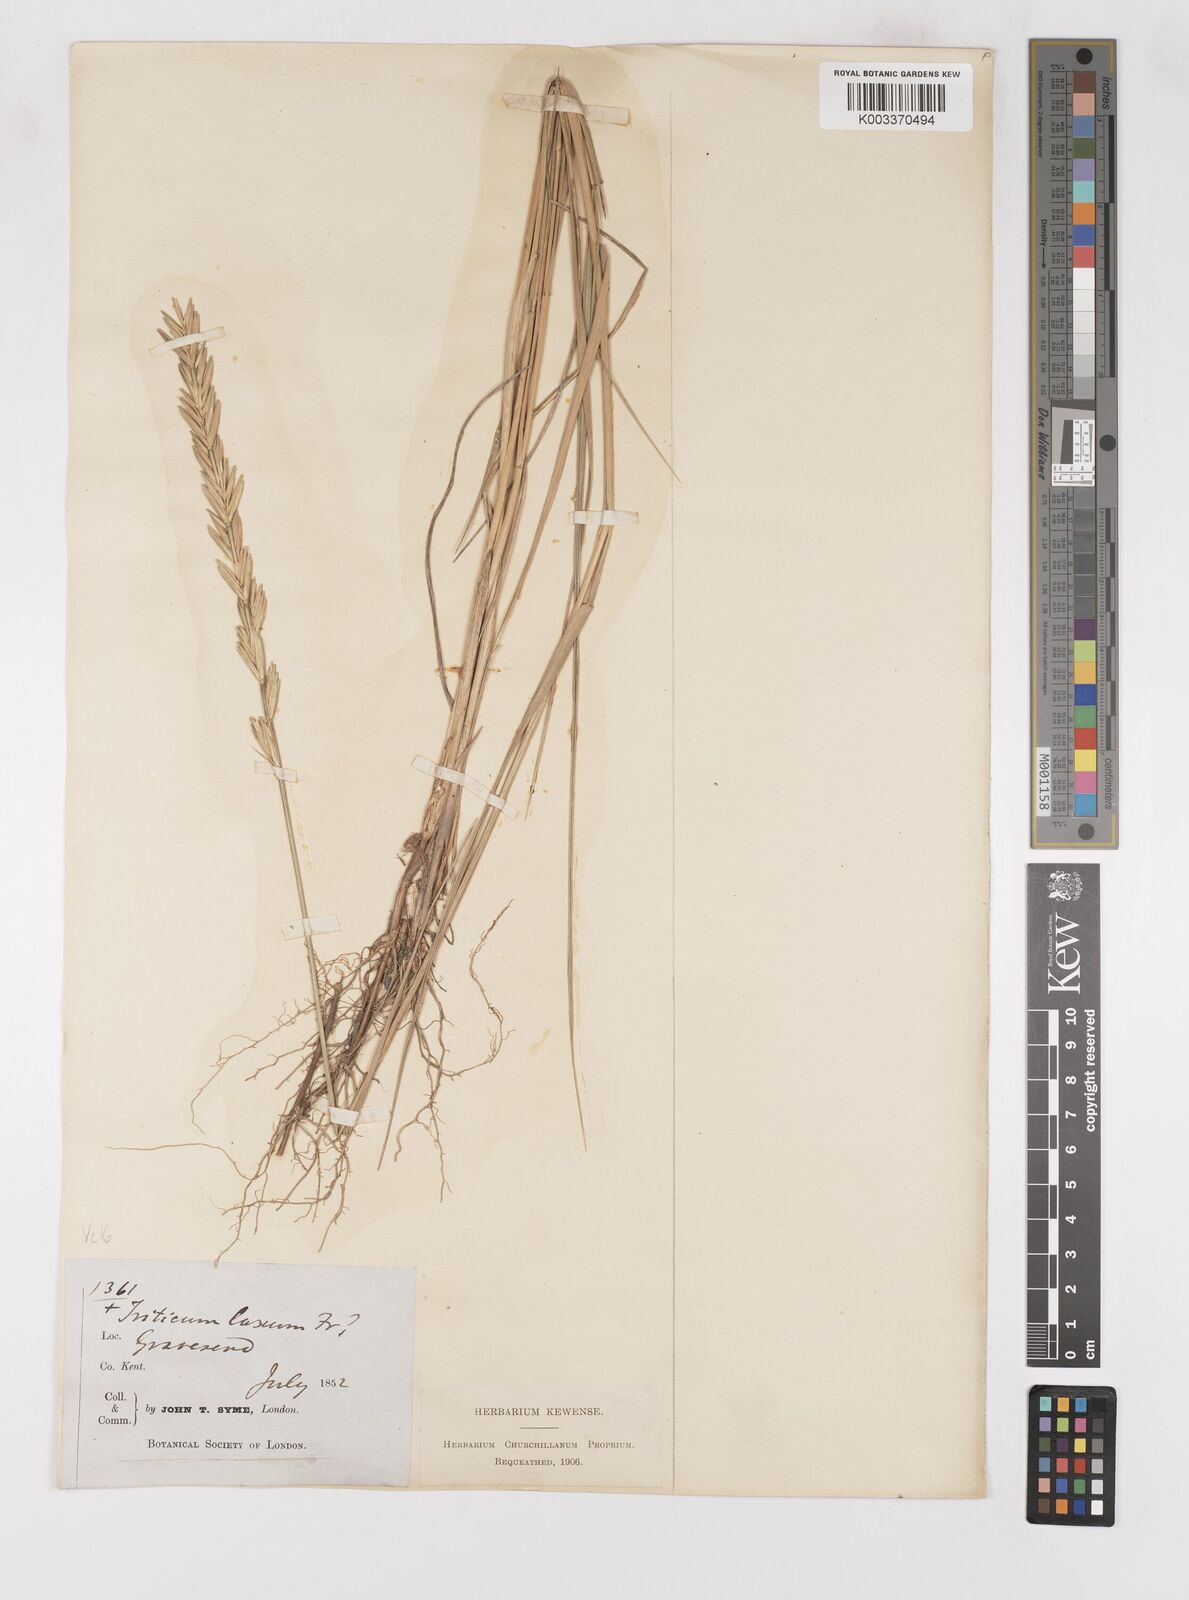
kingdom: Plantae
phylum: Tracheophyta
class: Liliopsida
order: Poales
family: Poaceae
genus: Thinoelymus
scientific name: Thinoelymus obtusiusculus
